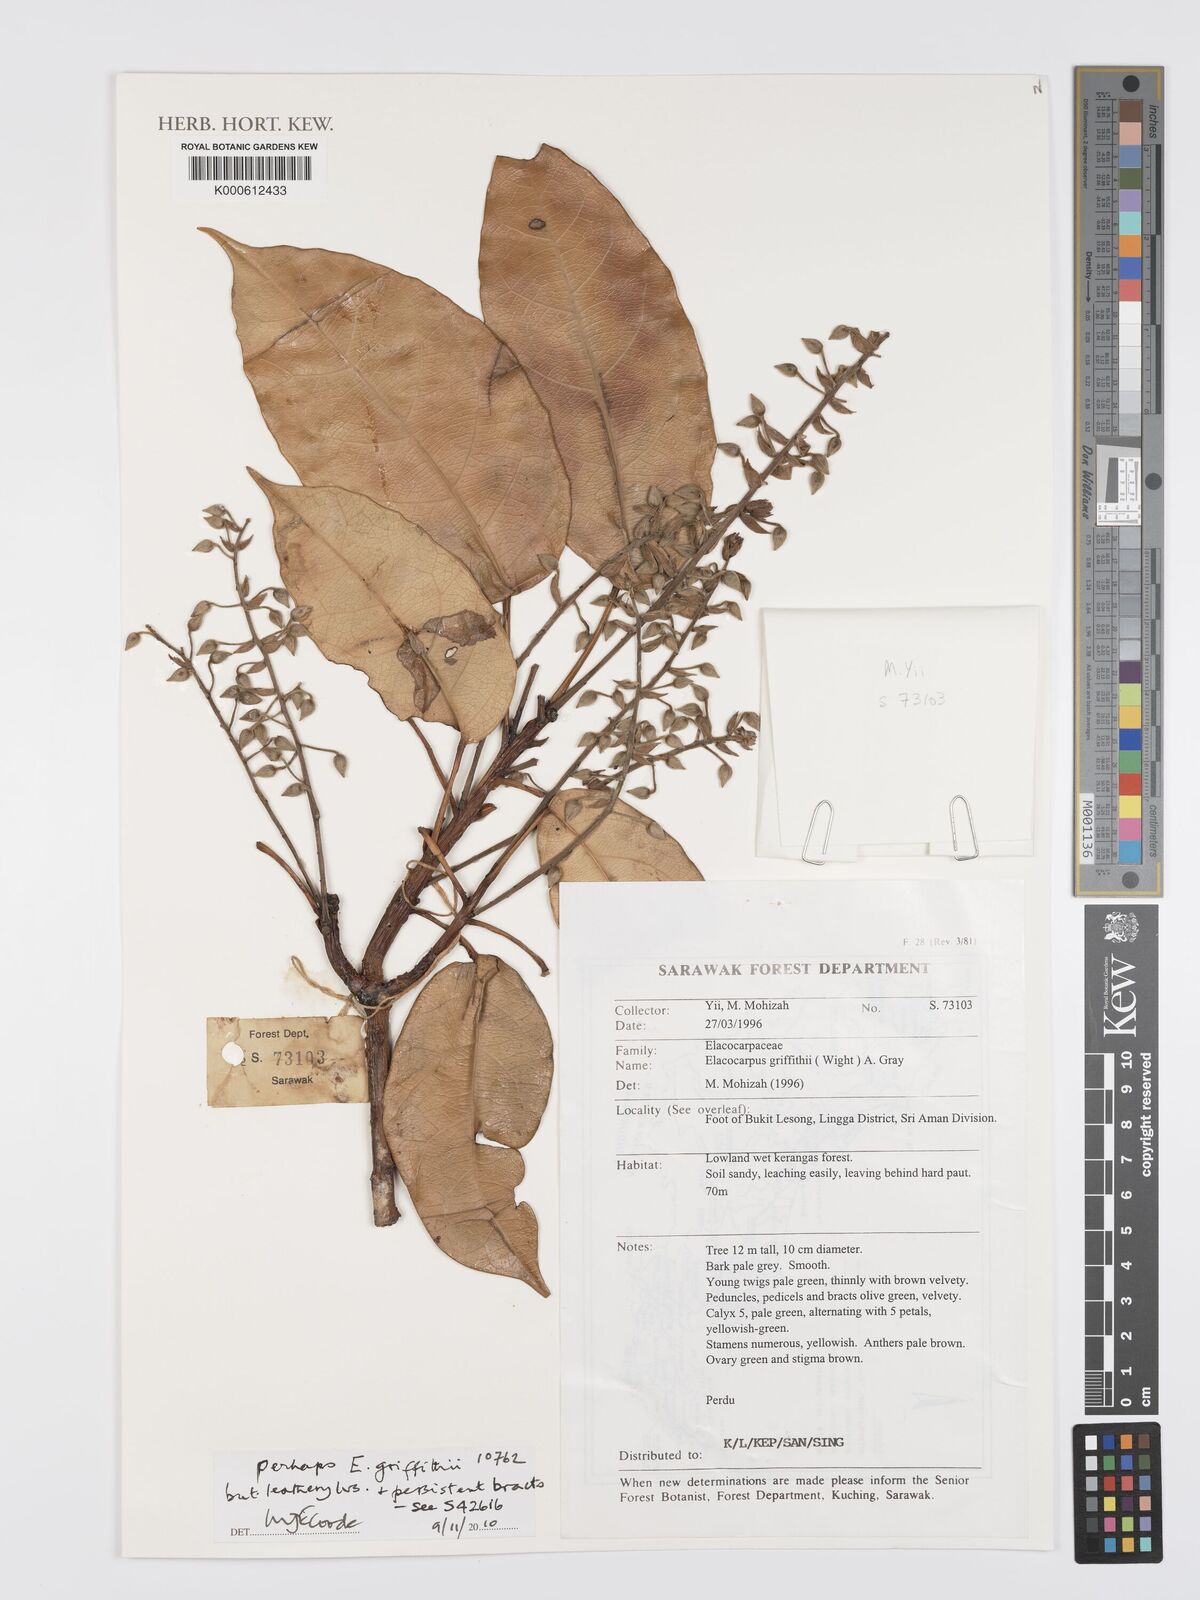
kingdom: Plantae
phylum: Tracheophyta
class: Magnoliopsida
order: Oxalidales
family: Elaeocarpaceae
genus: Elaeocarpus
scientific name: Elaeocarpus
